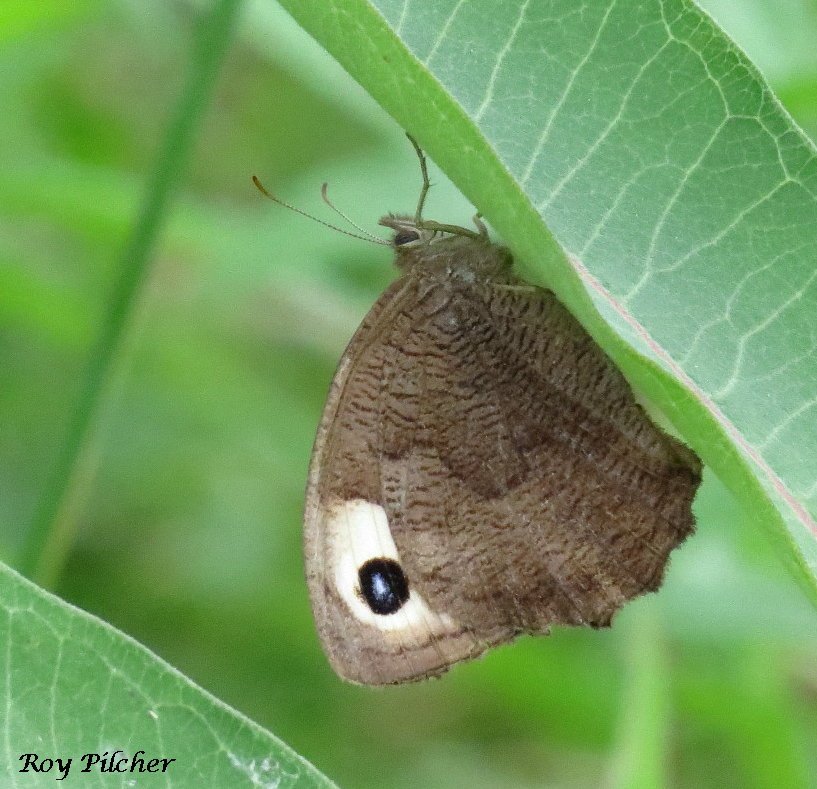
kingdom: Animalia
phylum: Arthropoda
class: Insecta
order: Lepidoptera
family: Nymphalidae
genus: Cercyonis
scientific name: Cercyonis pegala
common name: Common Wood-Nymph
